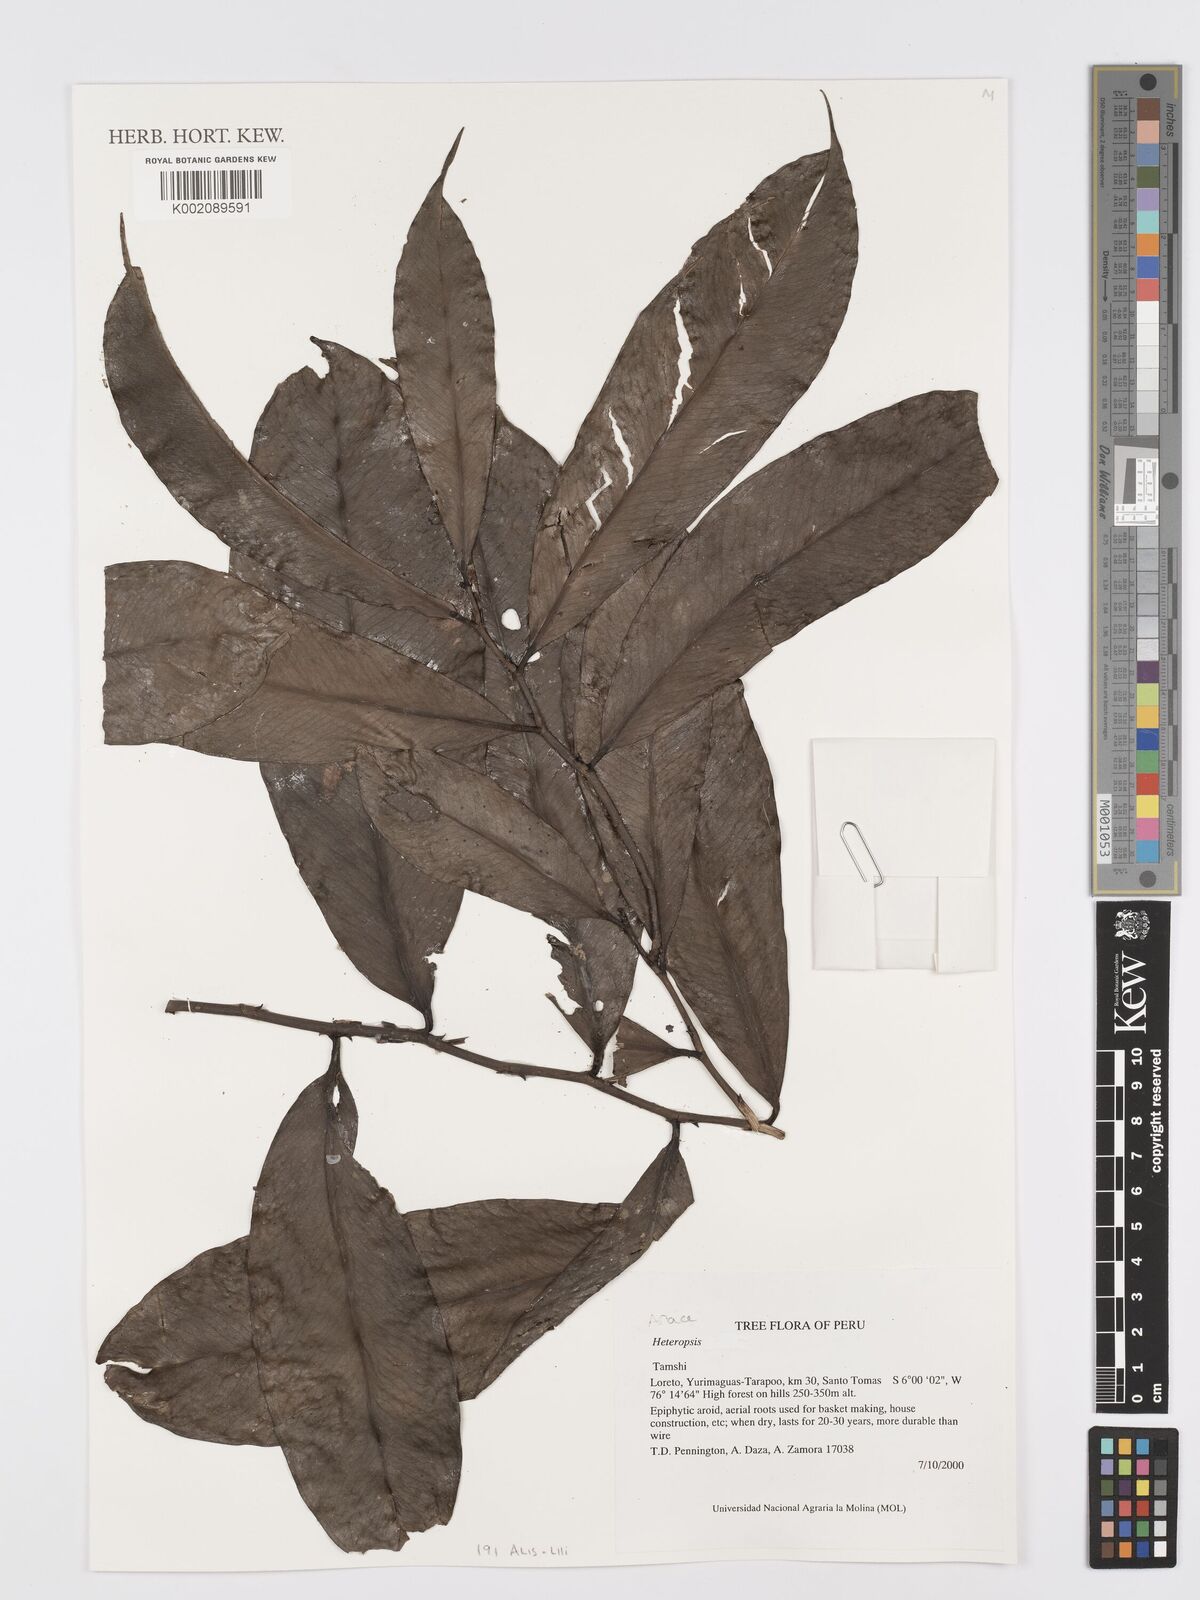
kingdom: Plantae
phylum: Tracheophyta
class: Liliopsida
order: Alismatales
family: Araceae
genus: Heteropsis
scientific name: Heteropsis
